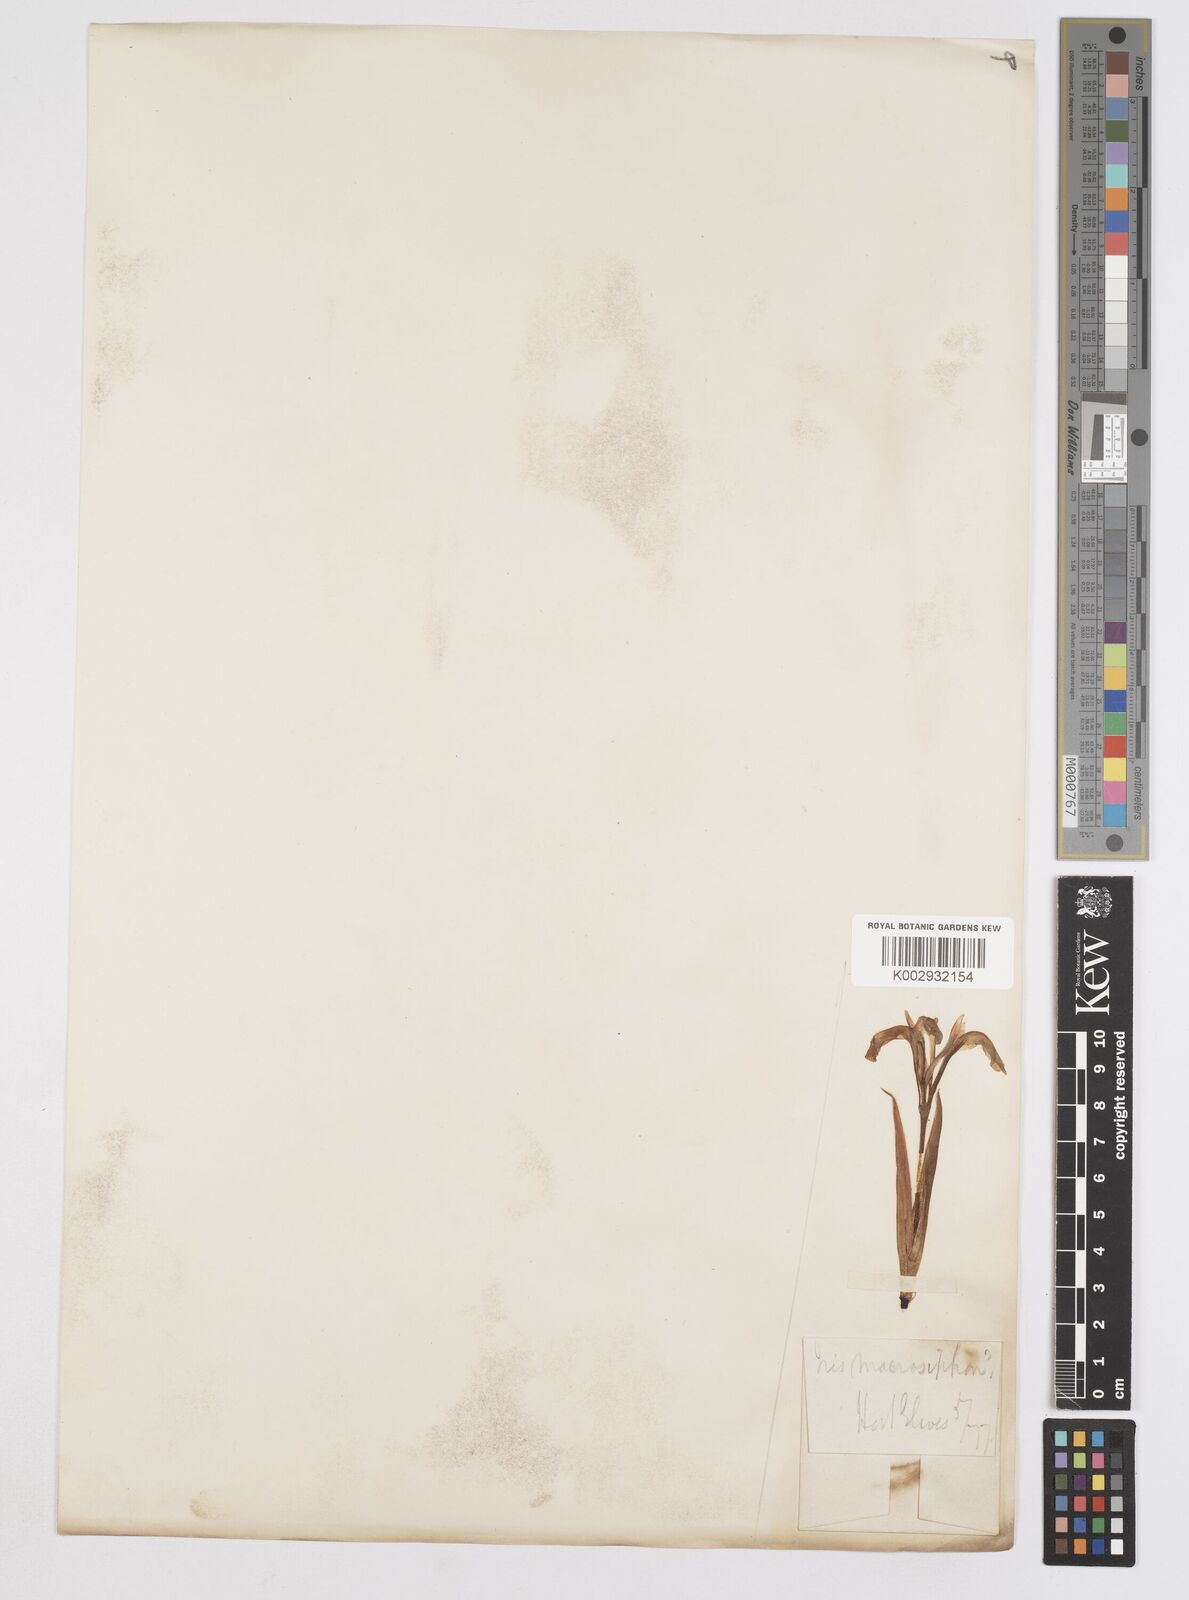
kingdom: Plantae
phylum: Tracheophyta
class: Liliopsida
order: Asparagales
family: Iridaceae
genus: Iris
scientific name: Iris macrosiphon
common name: Ground iris
